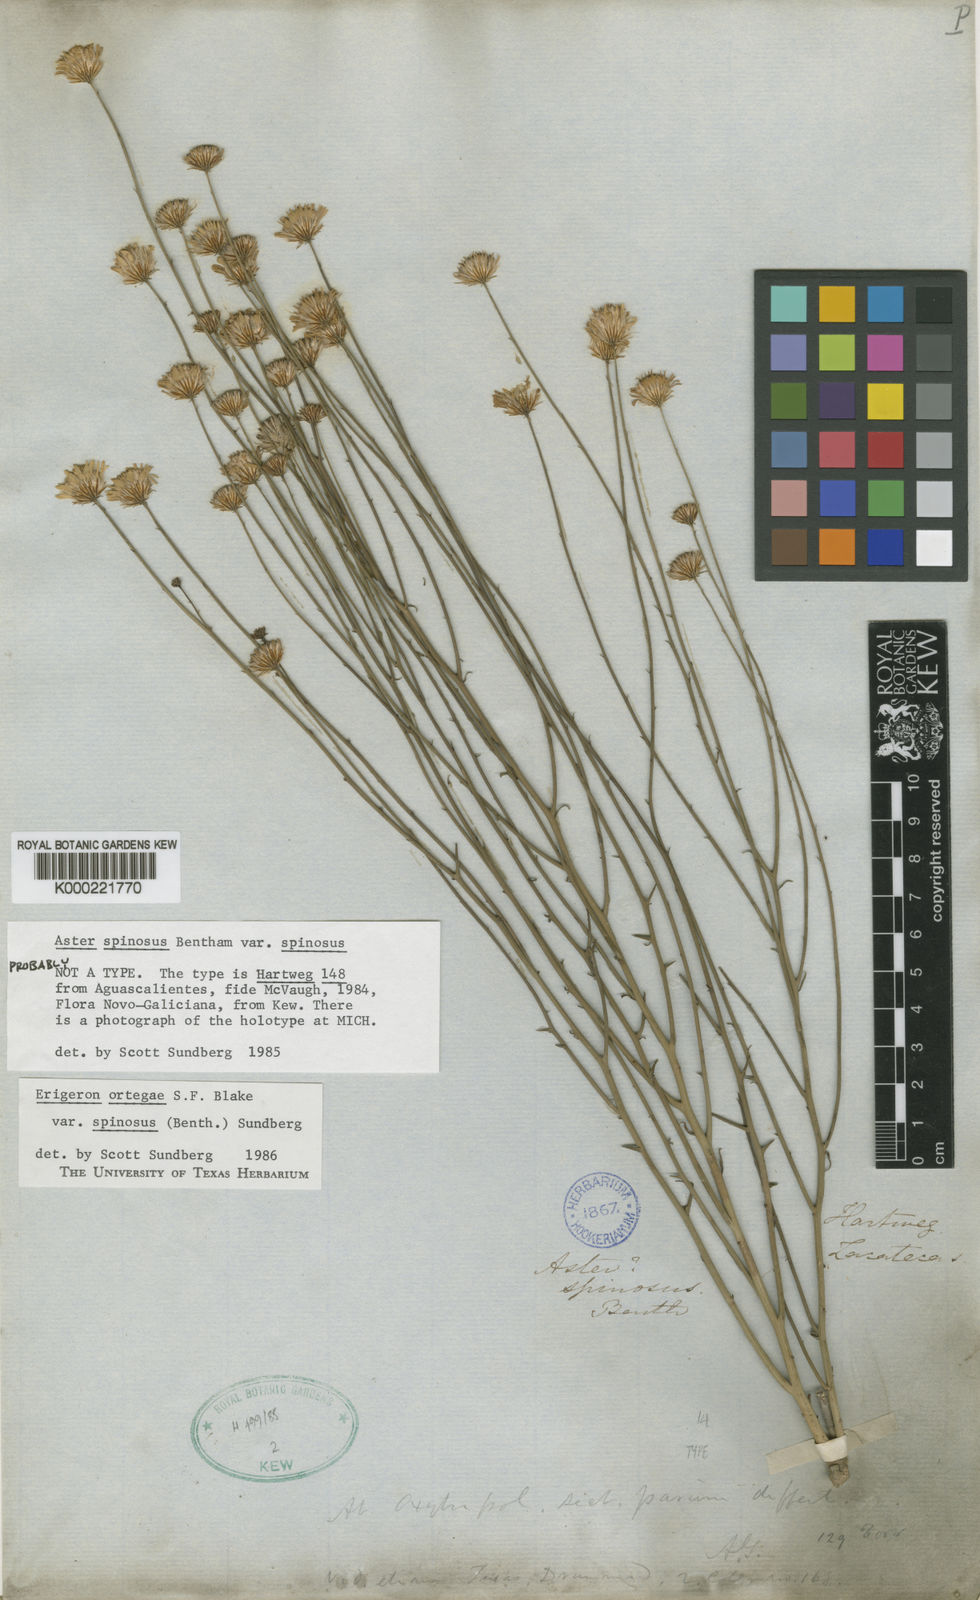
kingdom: Plantae
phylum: Tracheophyta
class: Magnoliopsida
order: Asterales
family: Asteraceae
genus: Chloracantha
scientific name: Chloracantha spinosa
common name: Mexican devilweed
